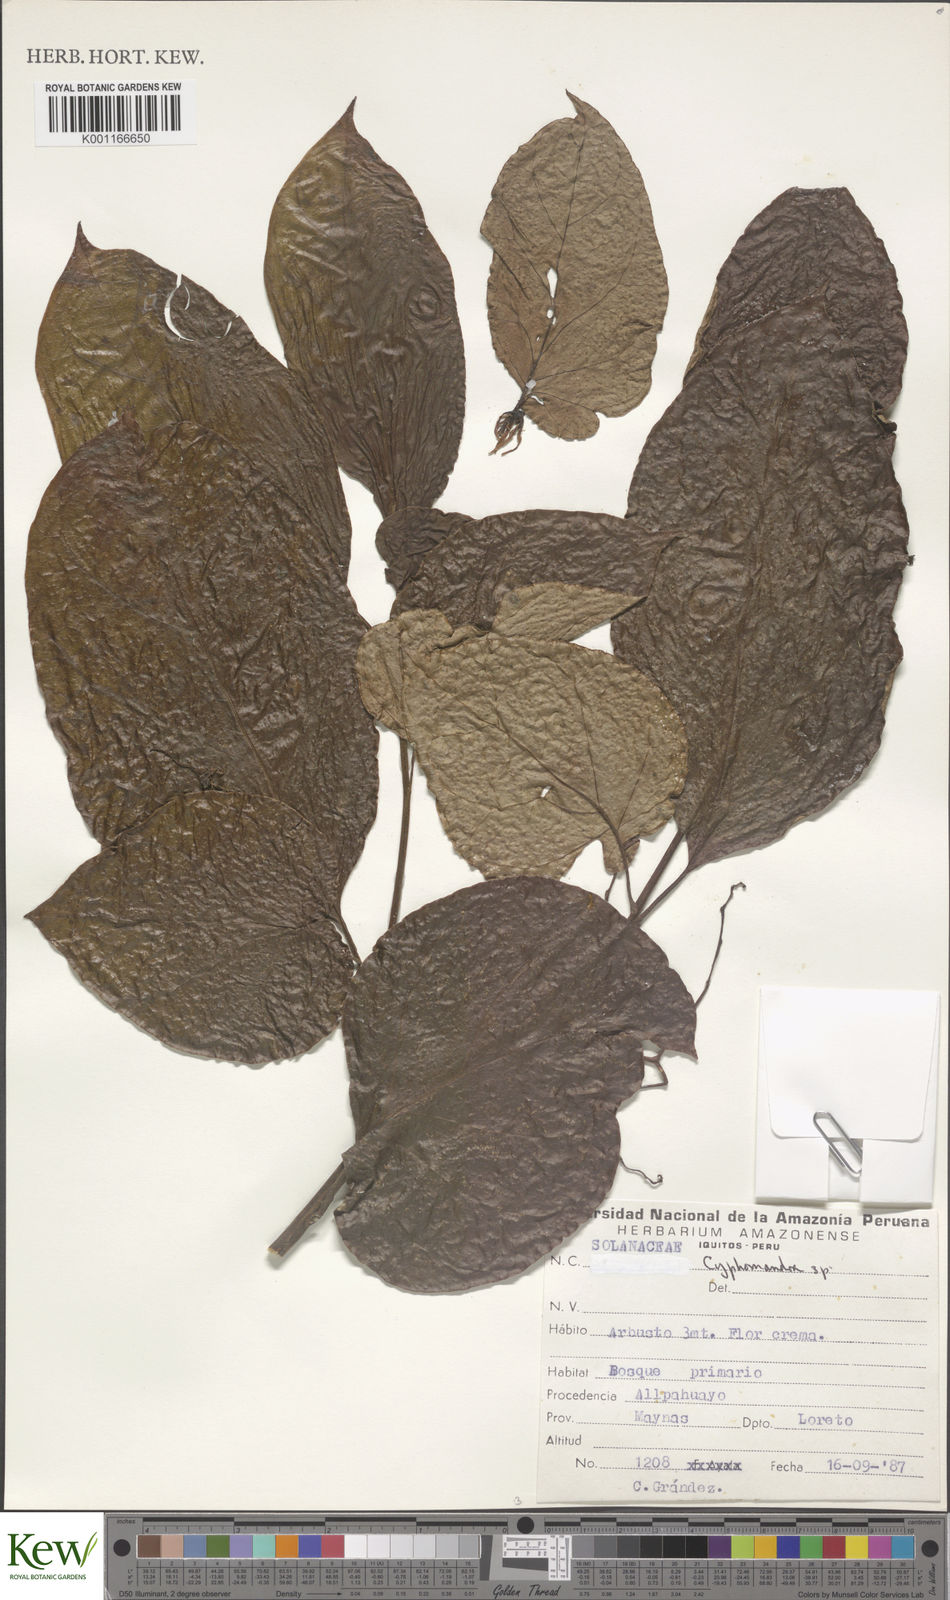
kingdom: Plantae
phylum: Tracheophyta
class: Magnoliopsida
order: Solanales
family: Solanaceae
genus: Solanum
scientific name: Solanum
